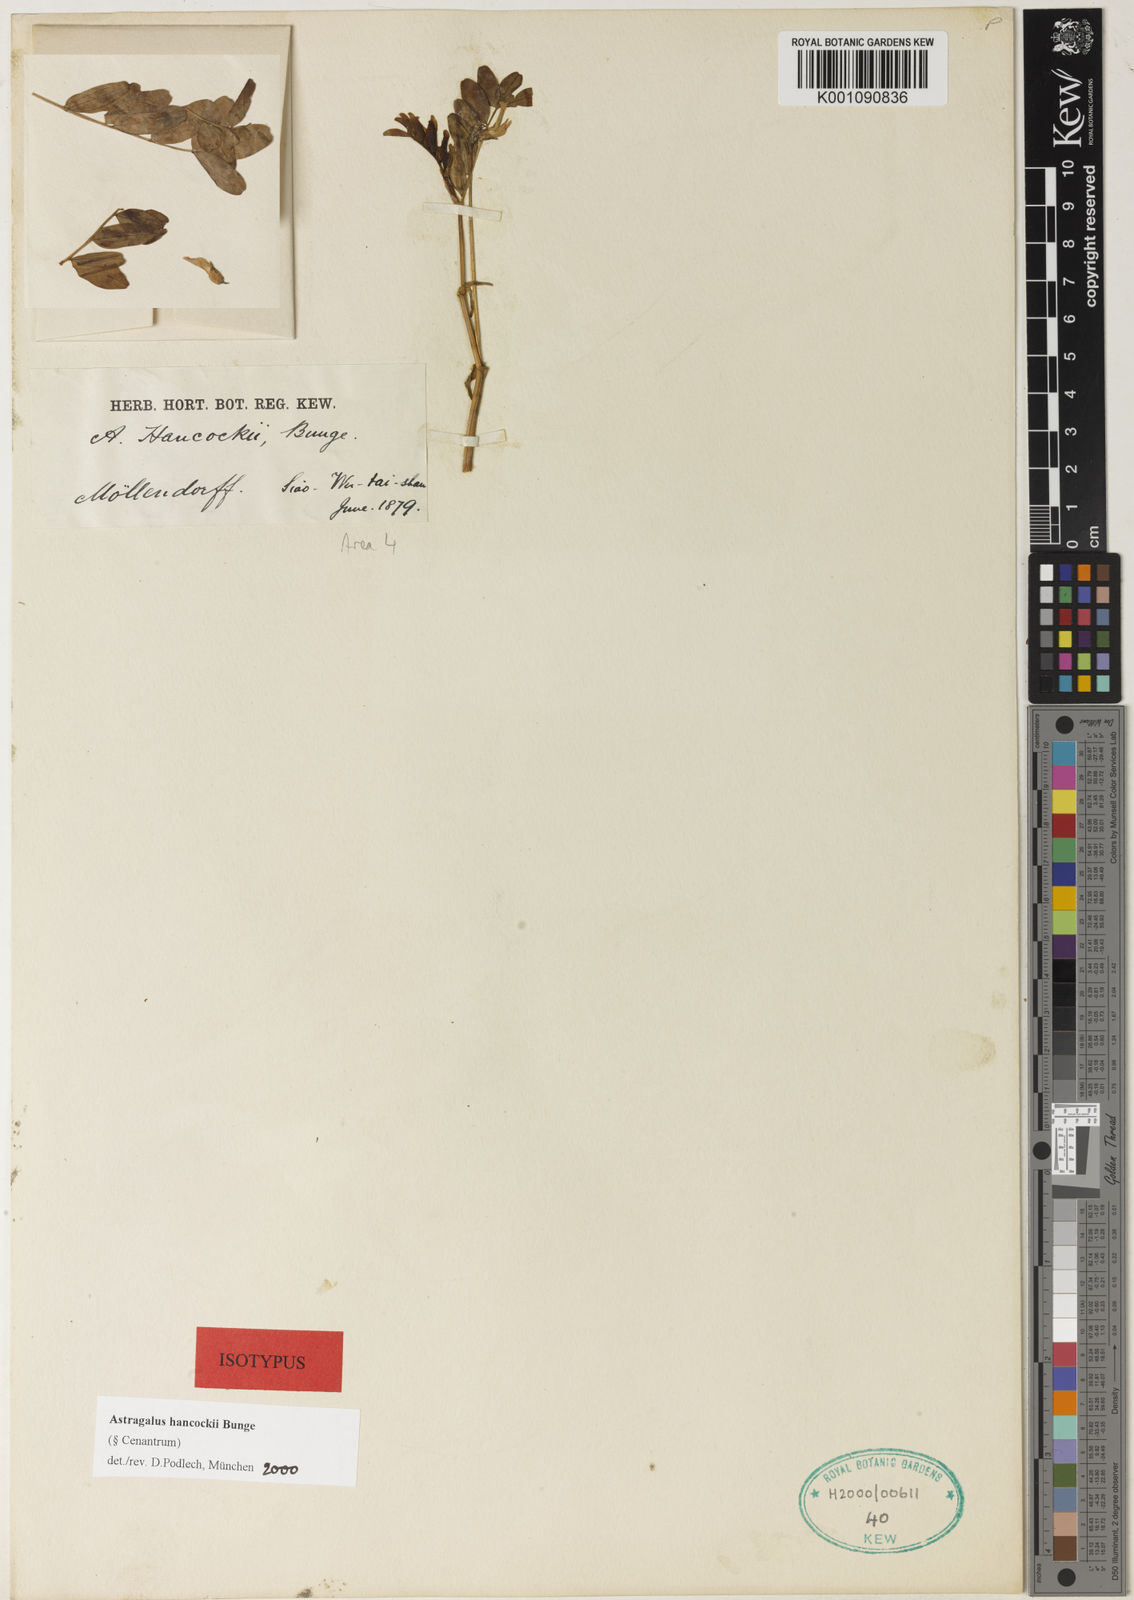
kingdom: Plantae
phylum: Tracheophyta
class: Magnoliopsida
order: Fabales
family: Fabaceae
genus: Astragalus
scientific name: Astragalus
